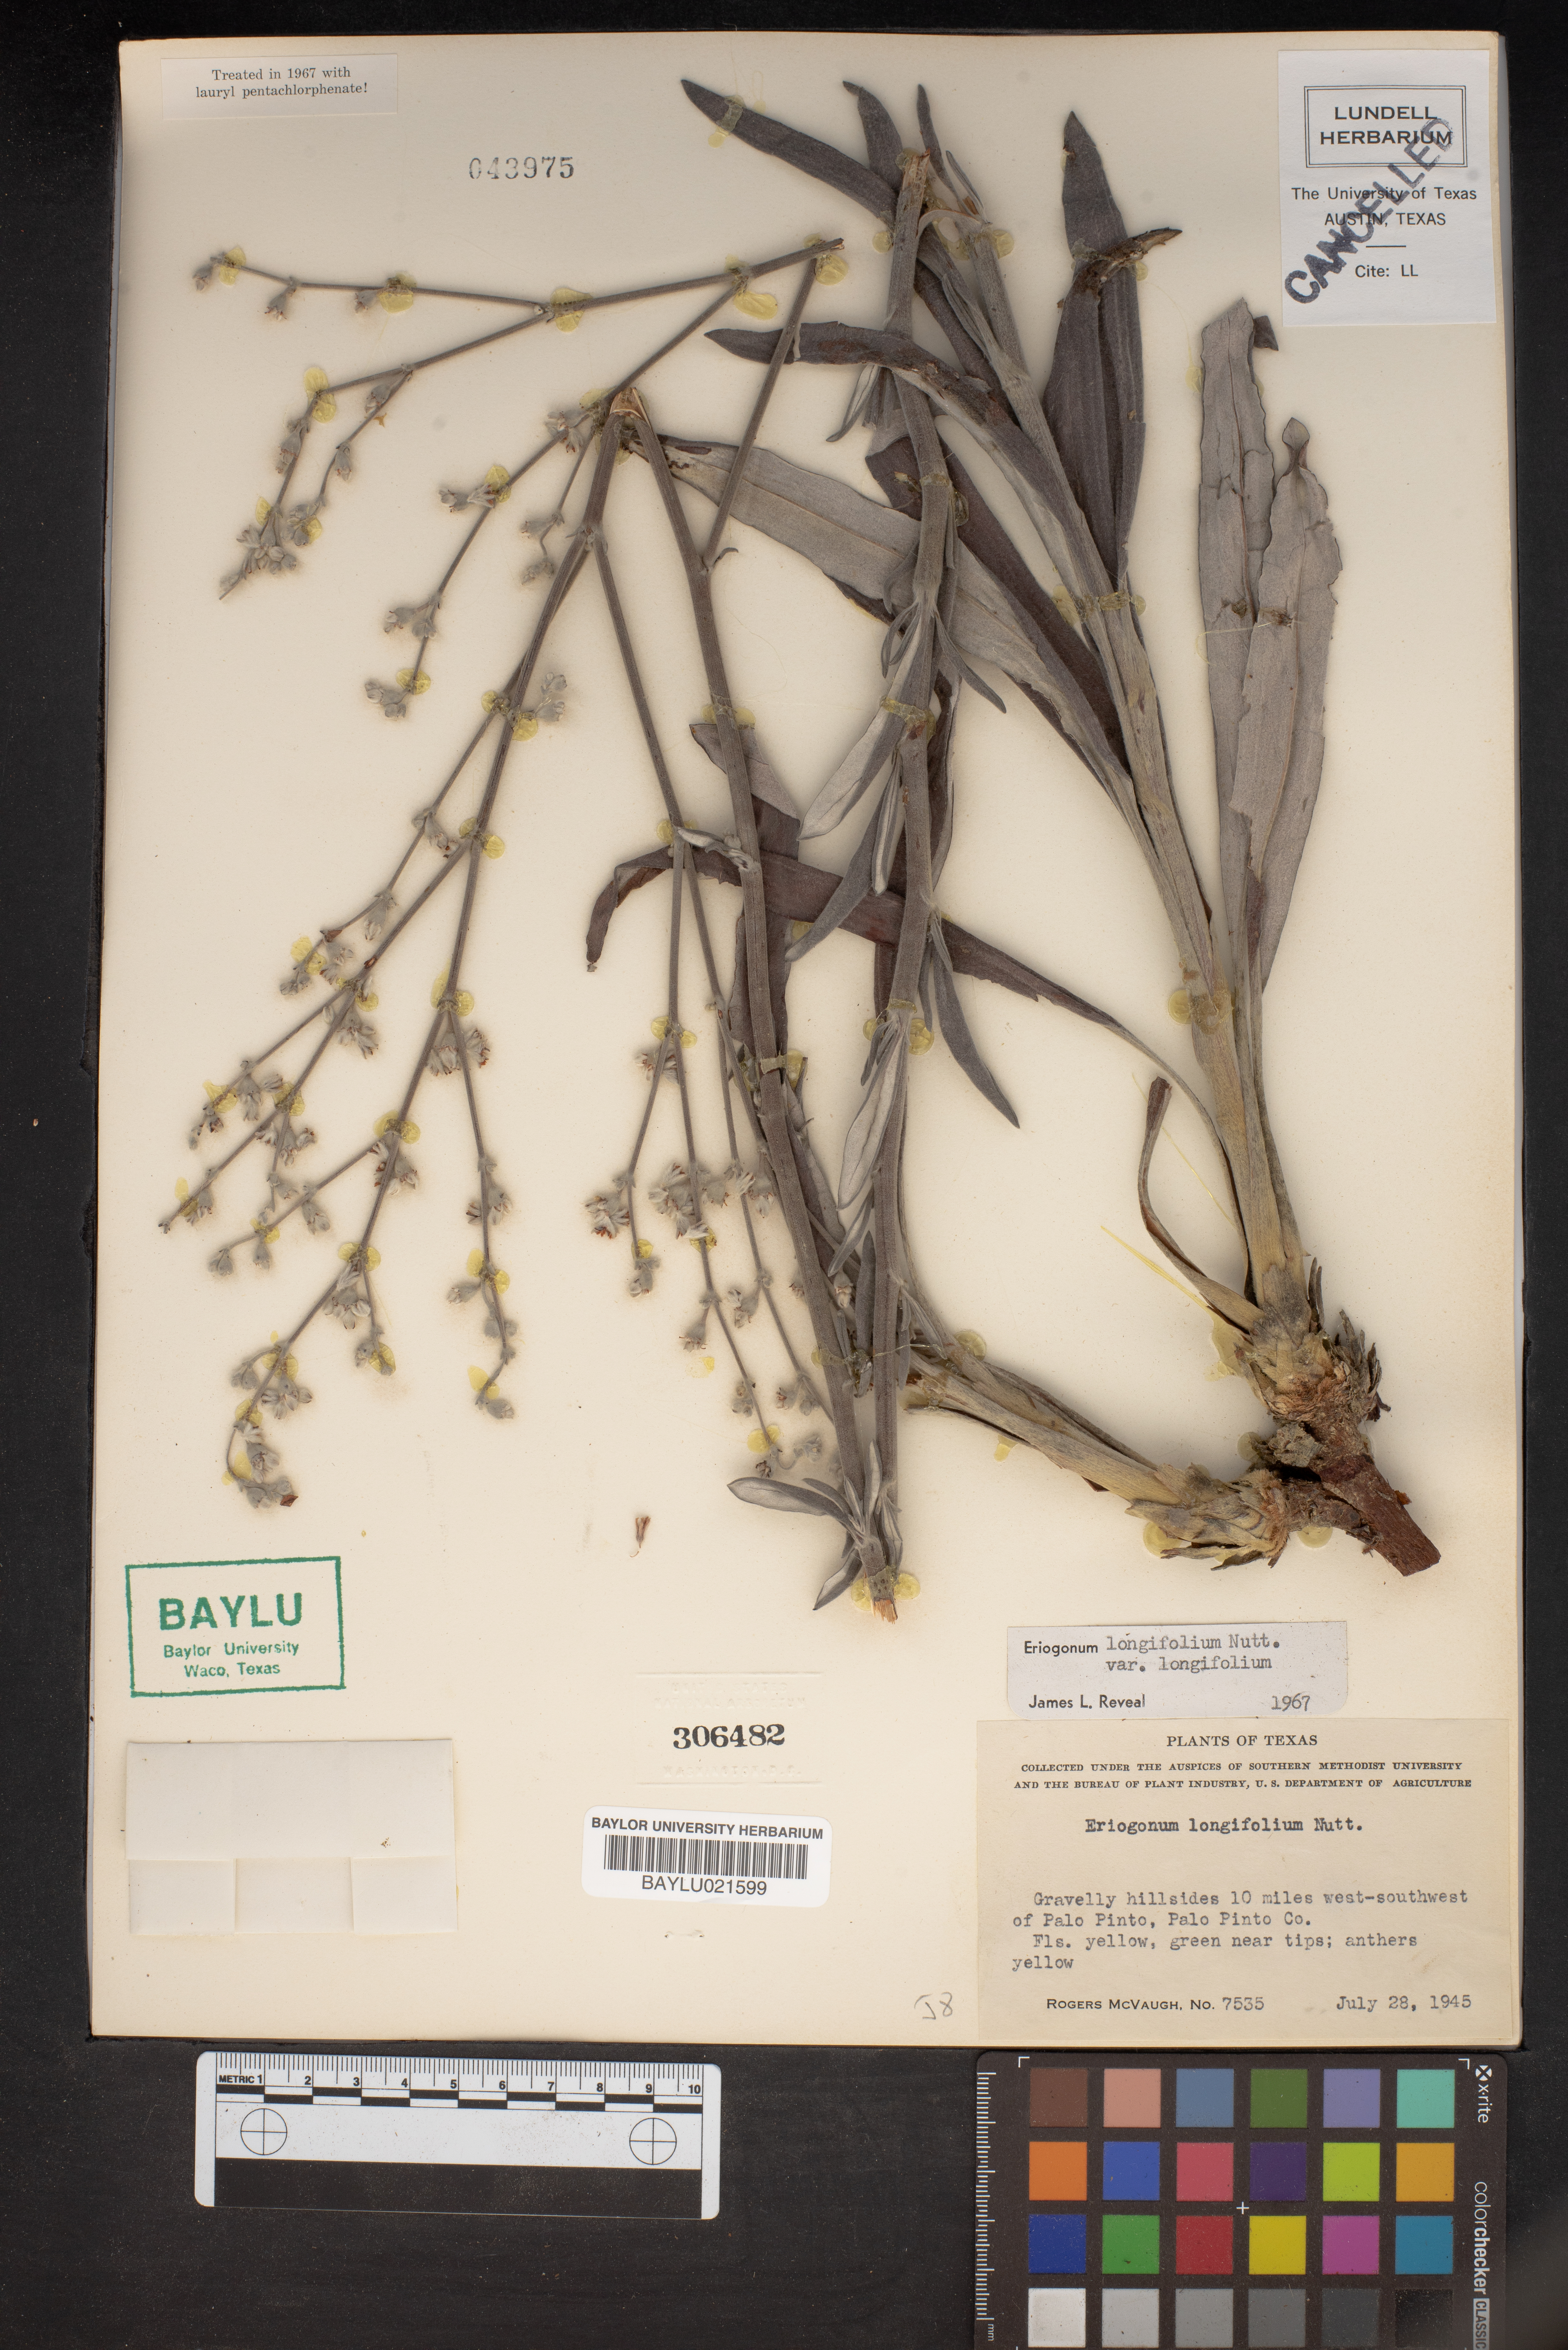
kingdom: Plantae
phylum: Tracheophyta
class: Magnoliopsida
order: Caryophyllales
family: Polygonaceae
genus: Eriogonum
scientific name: Eriogonum longifolium
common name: Longleaf wild buckwheat
